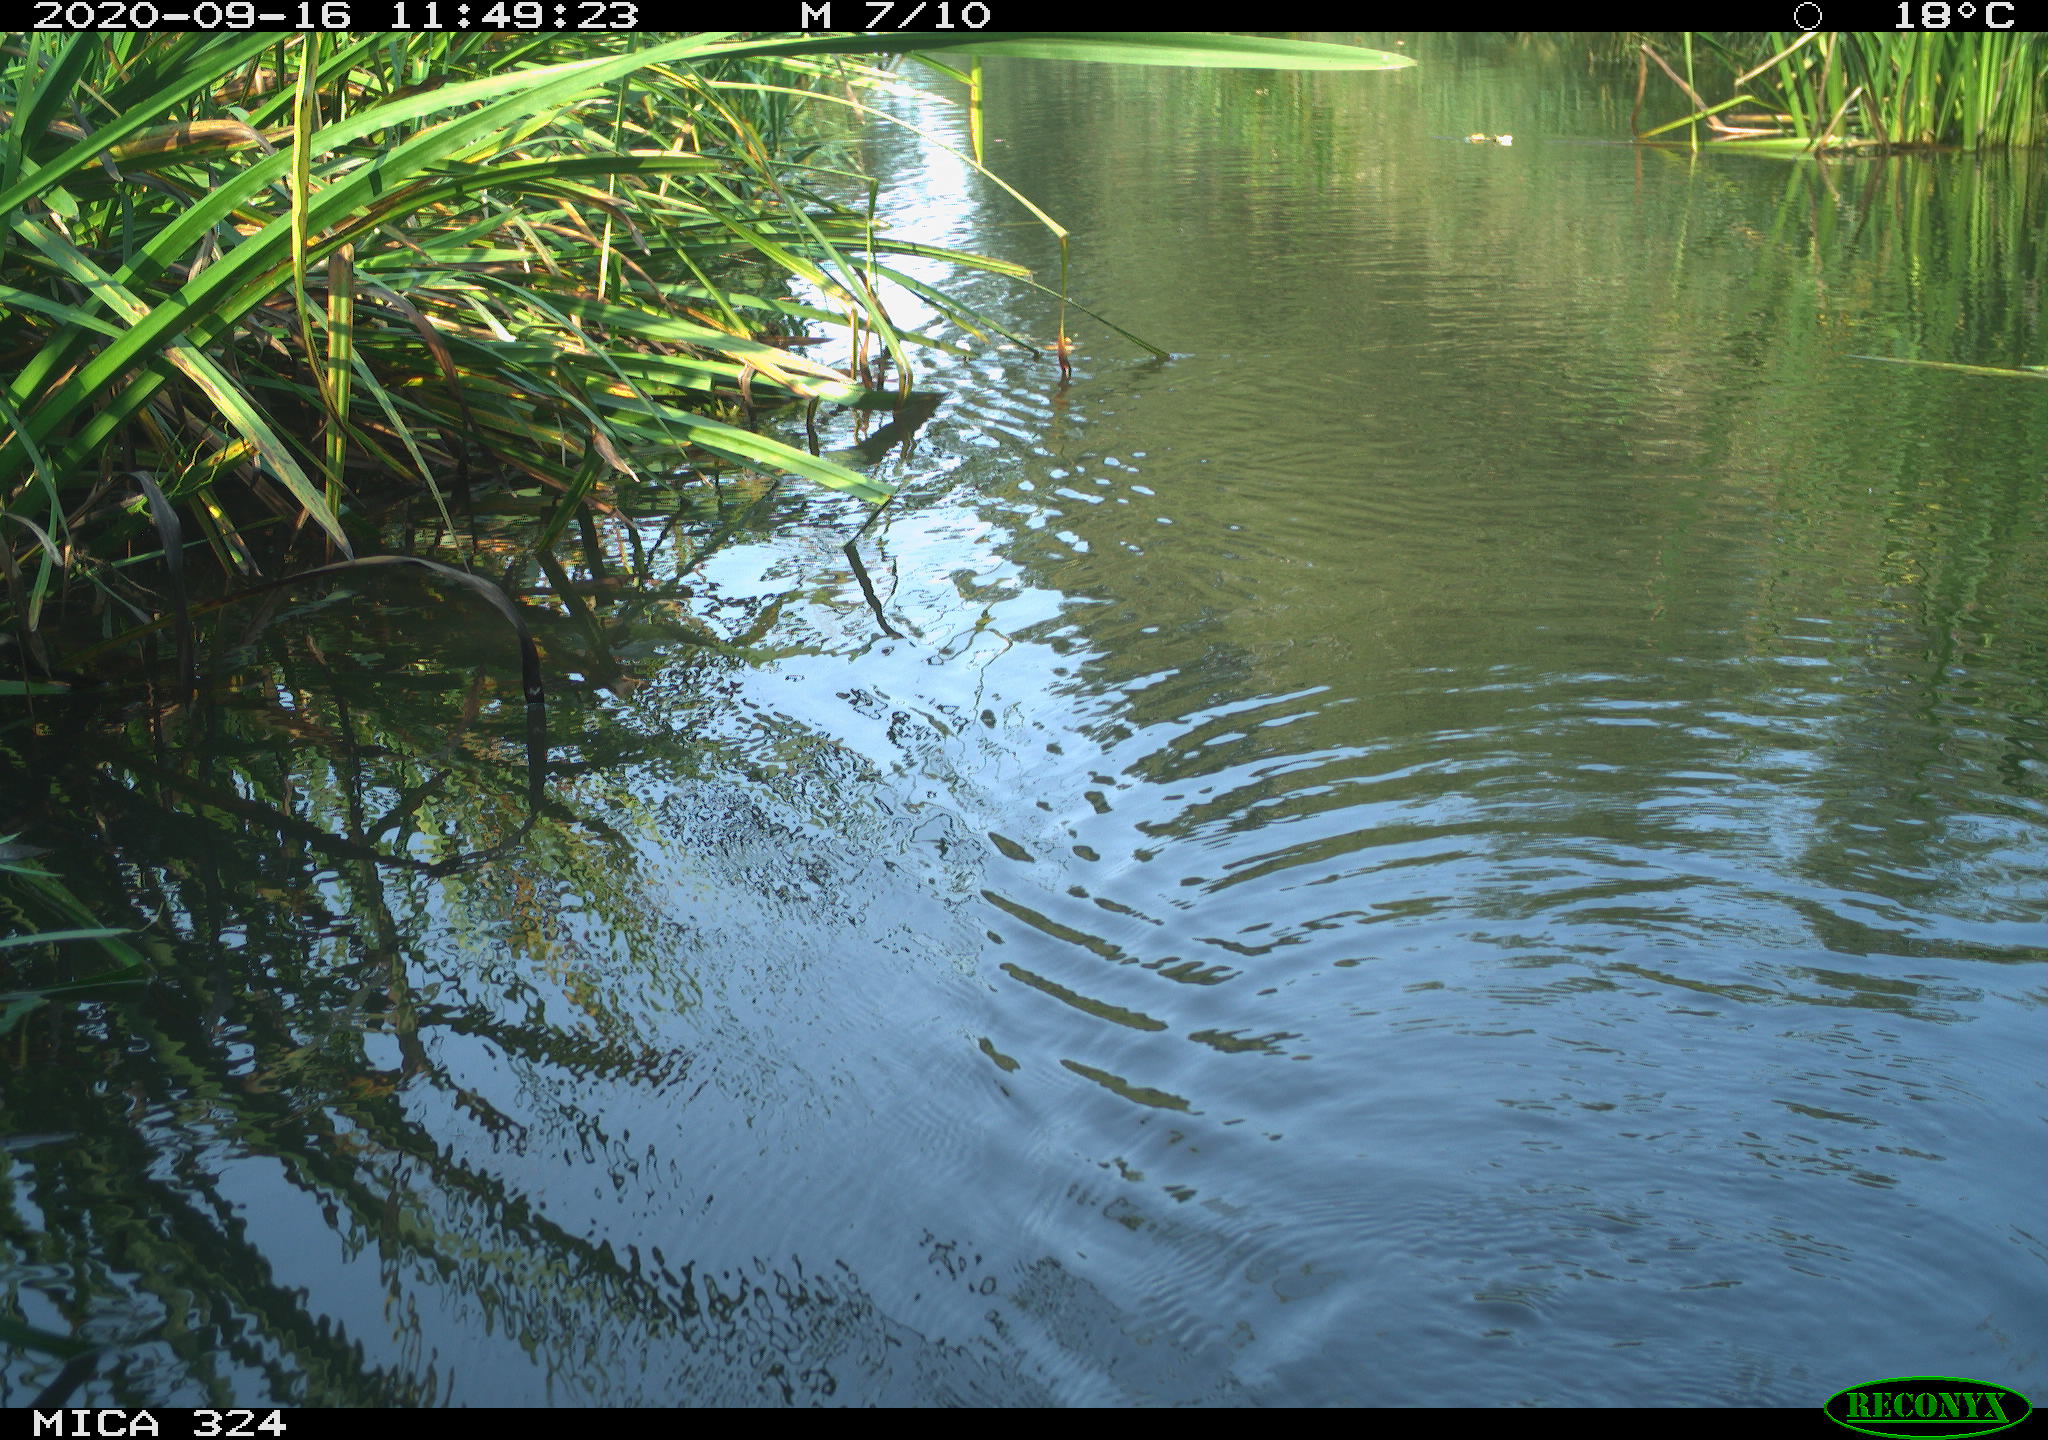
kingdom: Animalia
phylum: Chordata
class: Mammalia
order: Rodentia
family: Cricetidae
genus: Ondatra
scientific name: Ondatra zibethicus
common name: Muskrat
